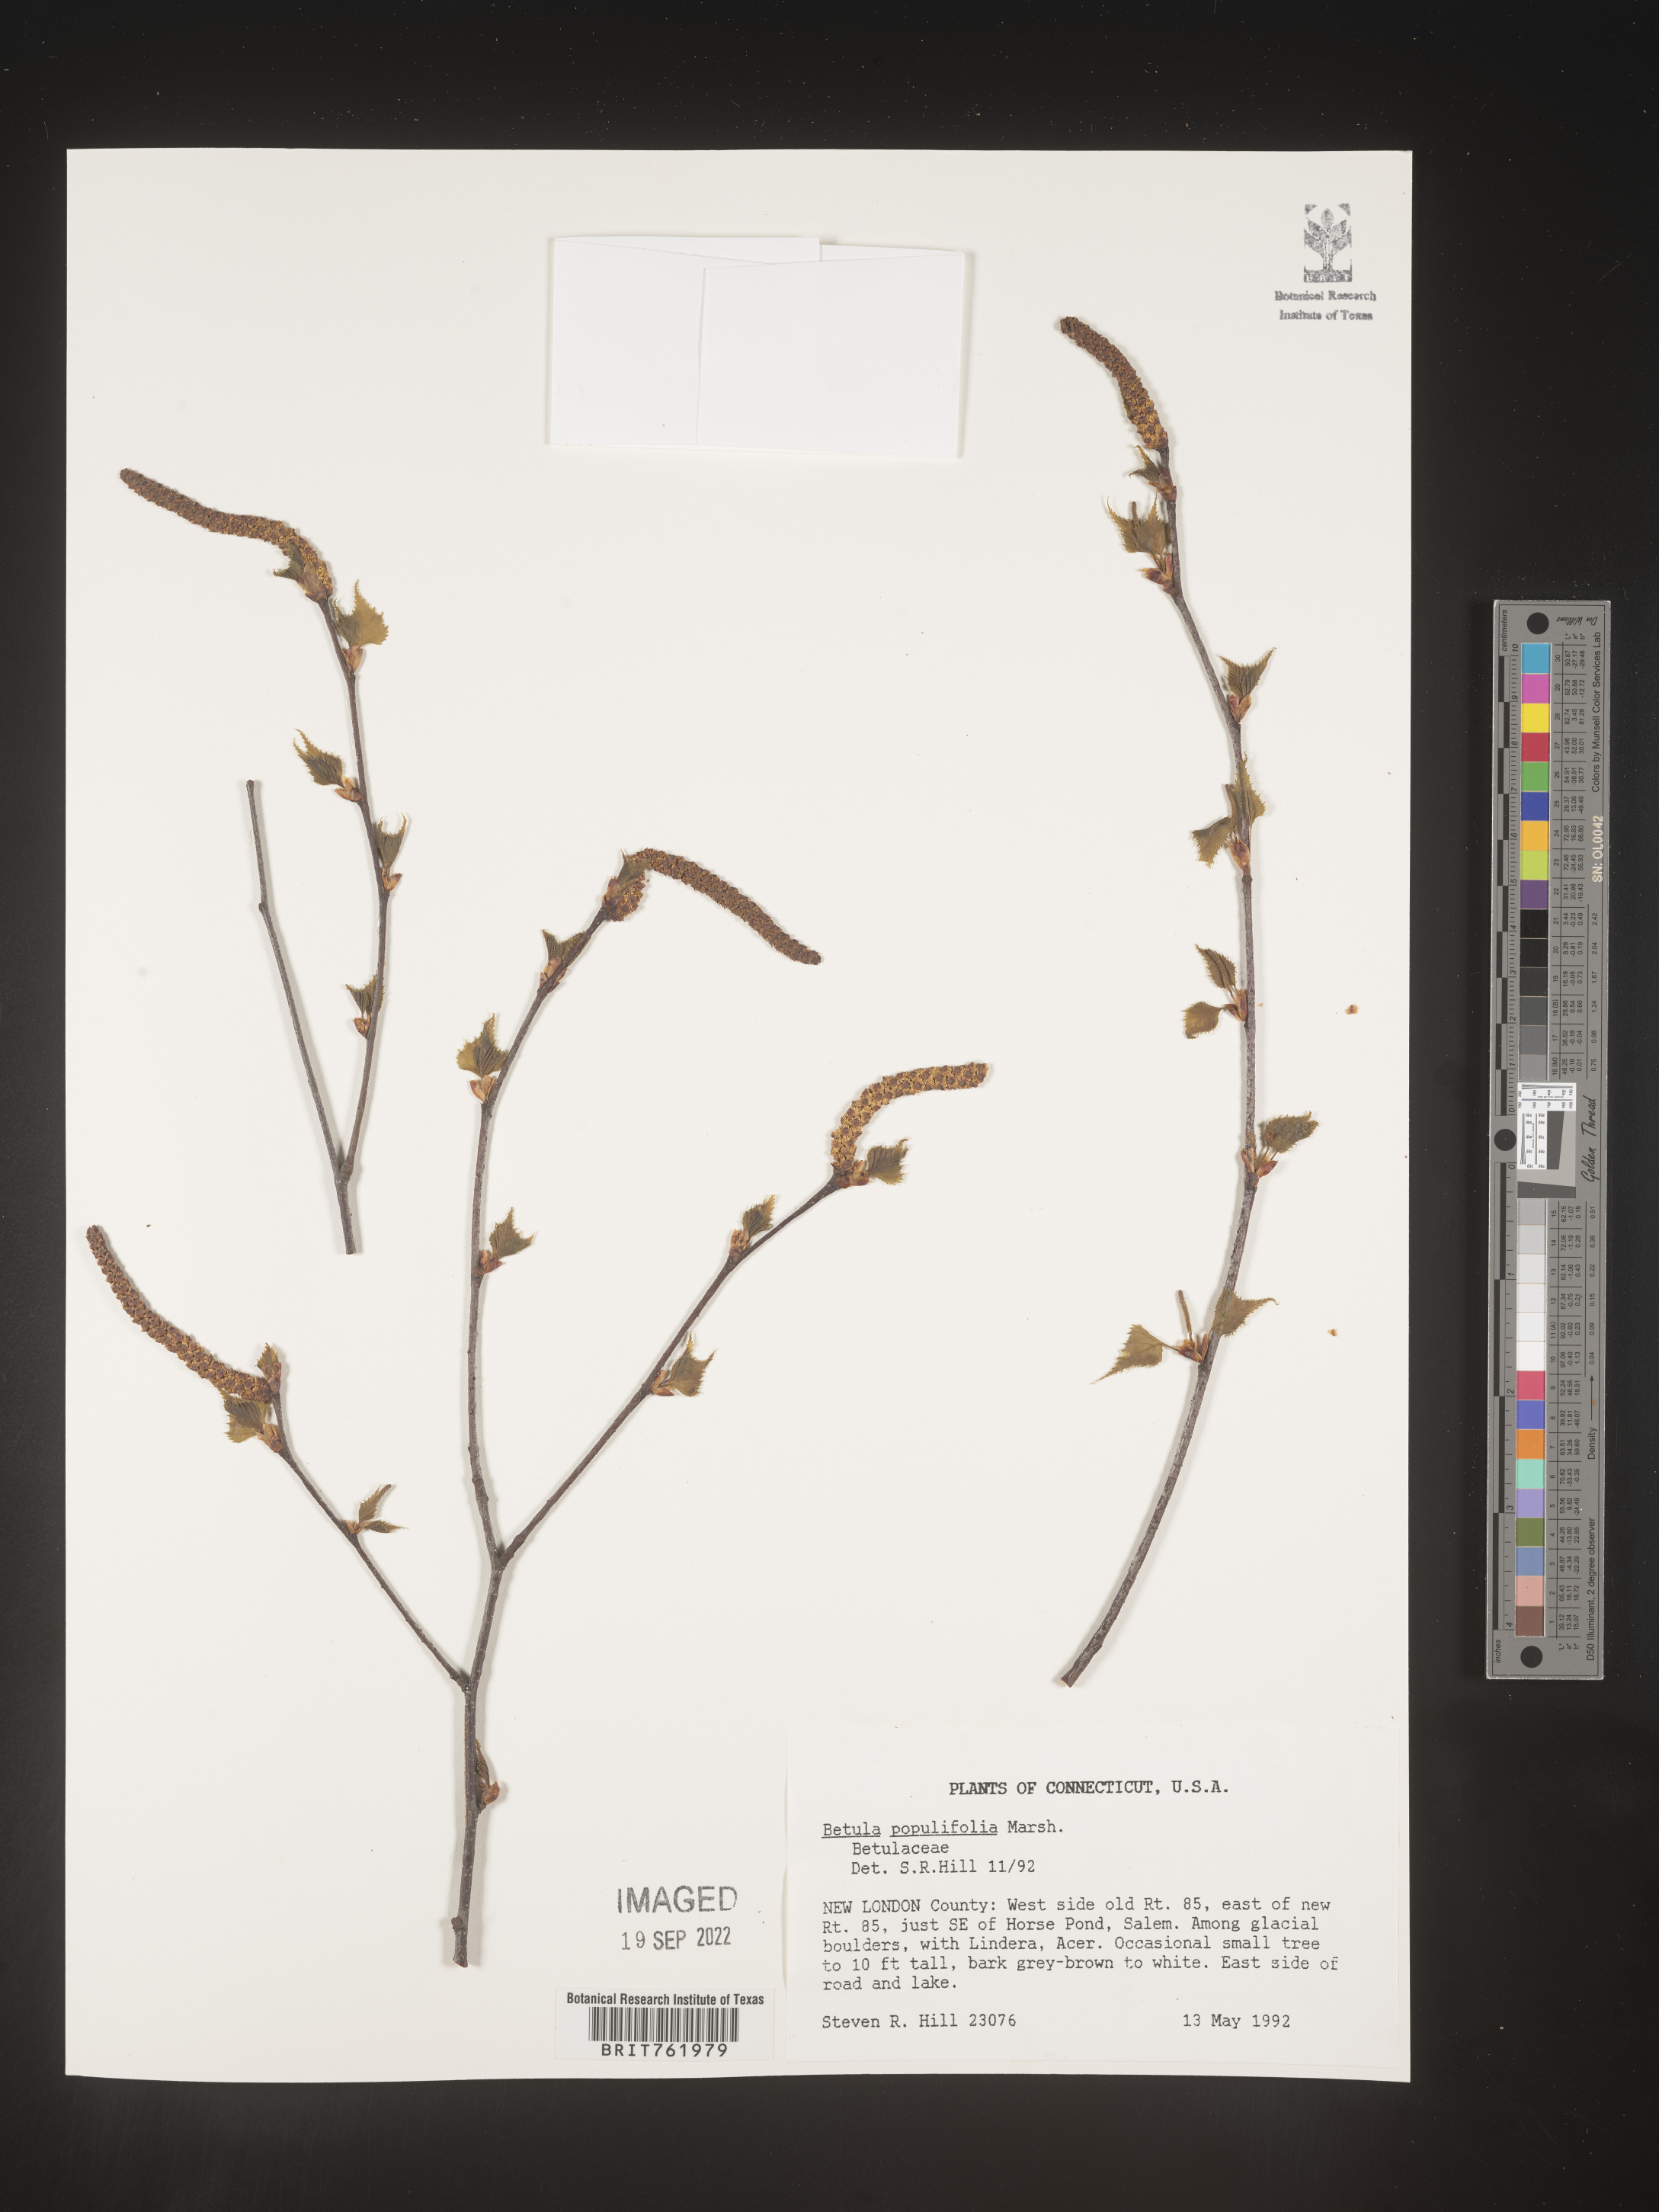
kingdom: Plantae
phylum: Tracheophyta
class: Magnoliopsida
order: Fagales
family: Betulaceae
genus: Betula
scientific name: Betula populifolia
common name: Fire birch
